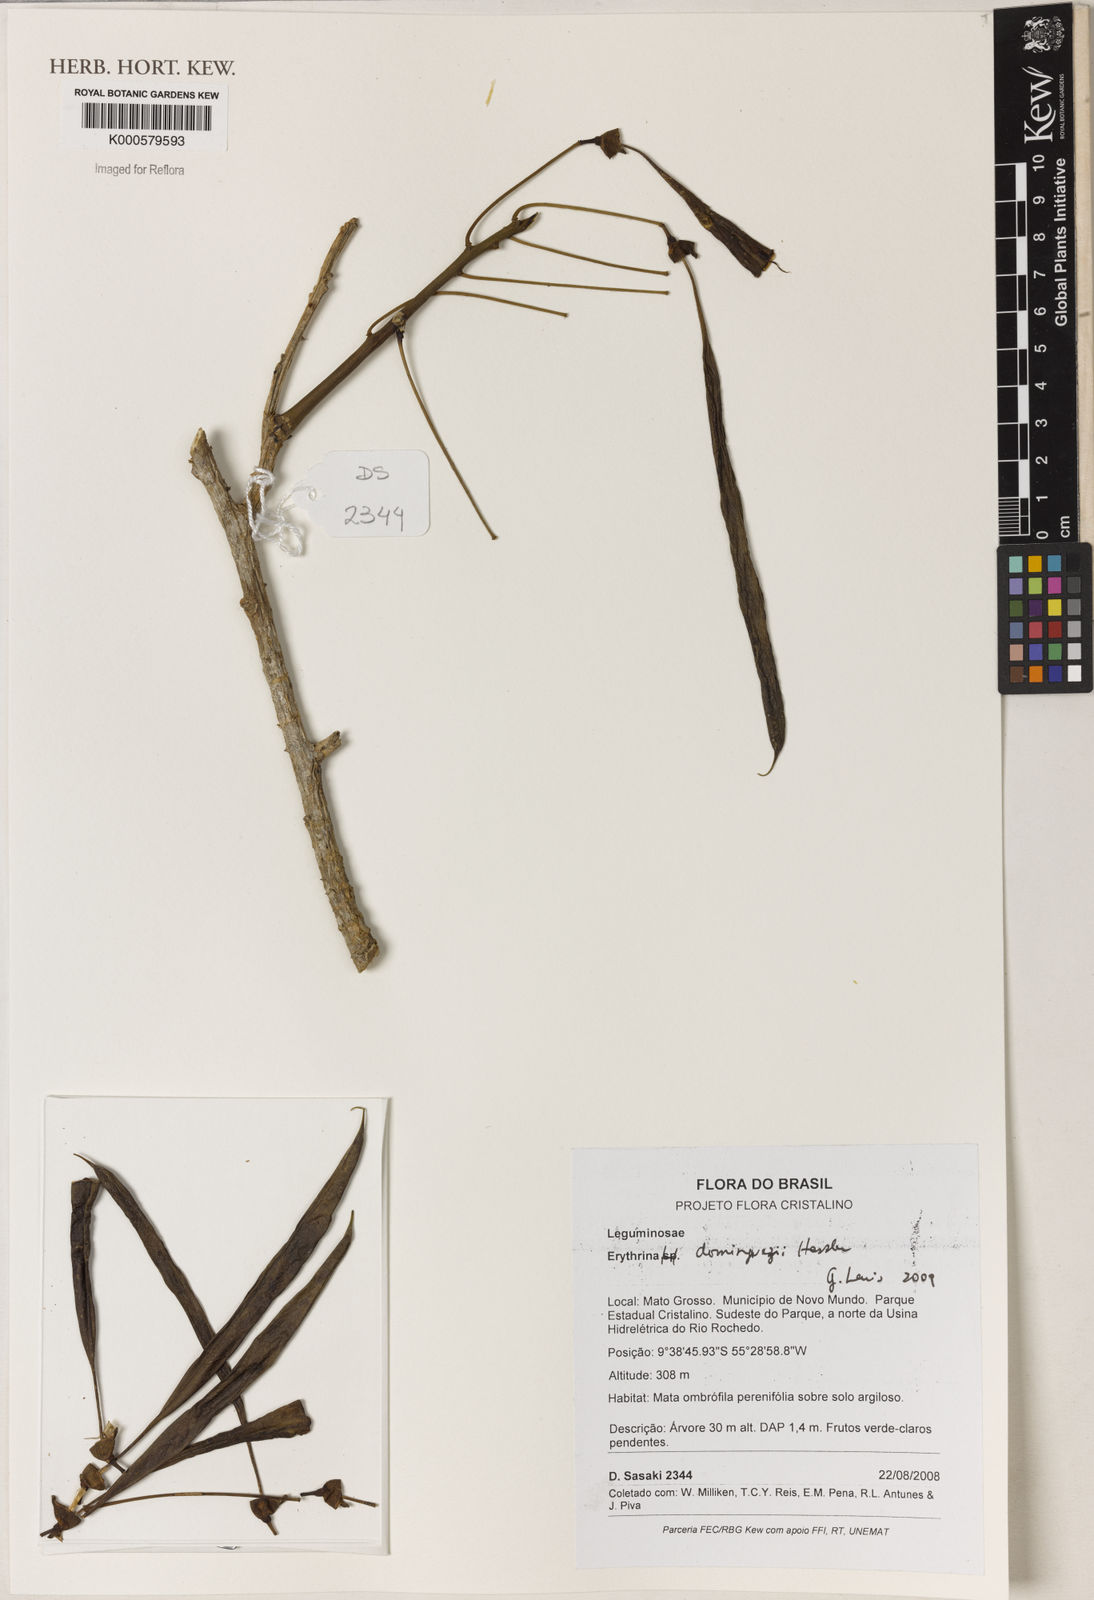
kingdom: Plantae
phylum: Tracheophyta
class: Magnoliopsida
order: Fabales
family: Fabaceae
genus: Erythrina
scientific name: Erythrina mulungu
